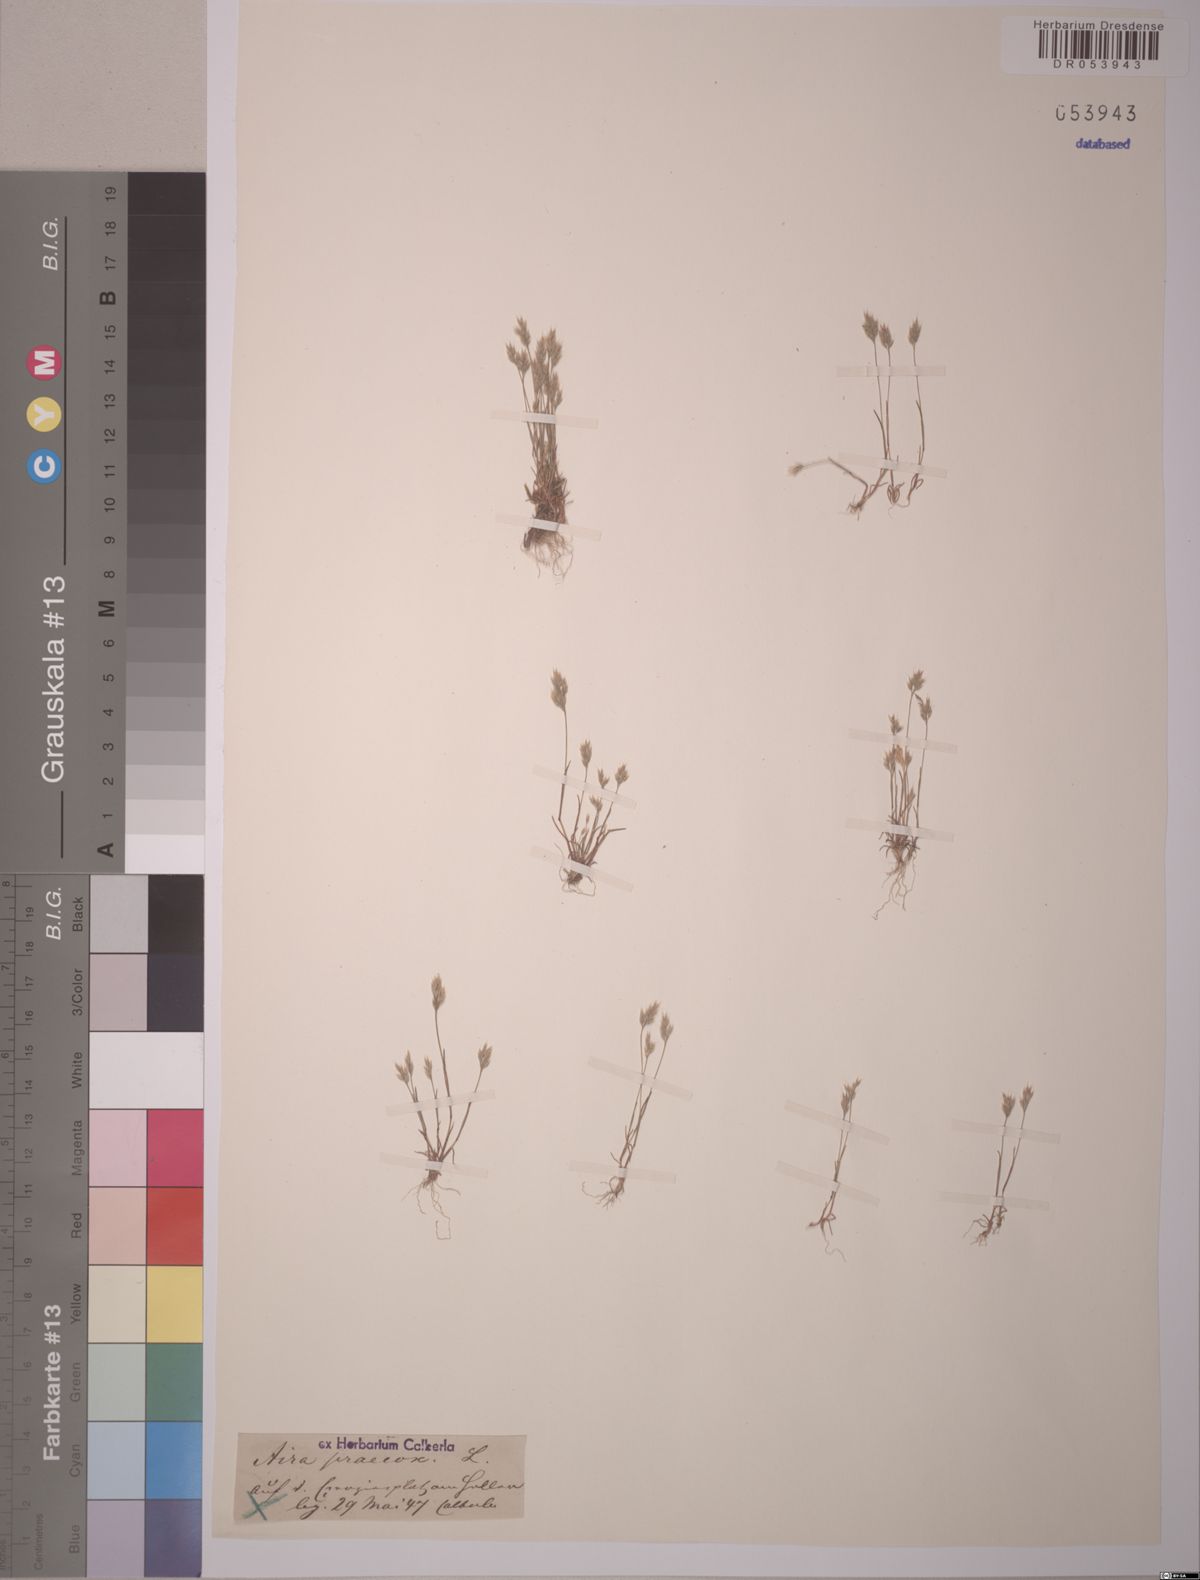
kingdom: Plantae
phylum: Tracheophyta
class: Liliopsida
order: Poales
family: Poaceae
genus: Aira
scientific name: Aira praecox
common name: Early hair-grass
